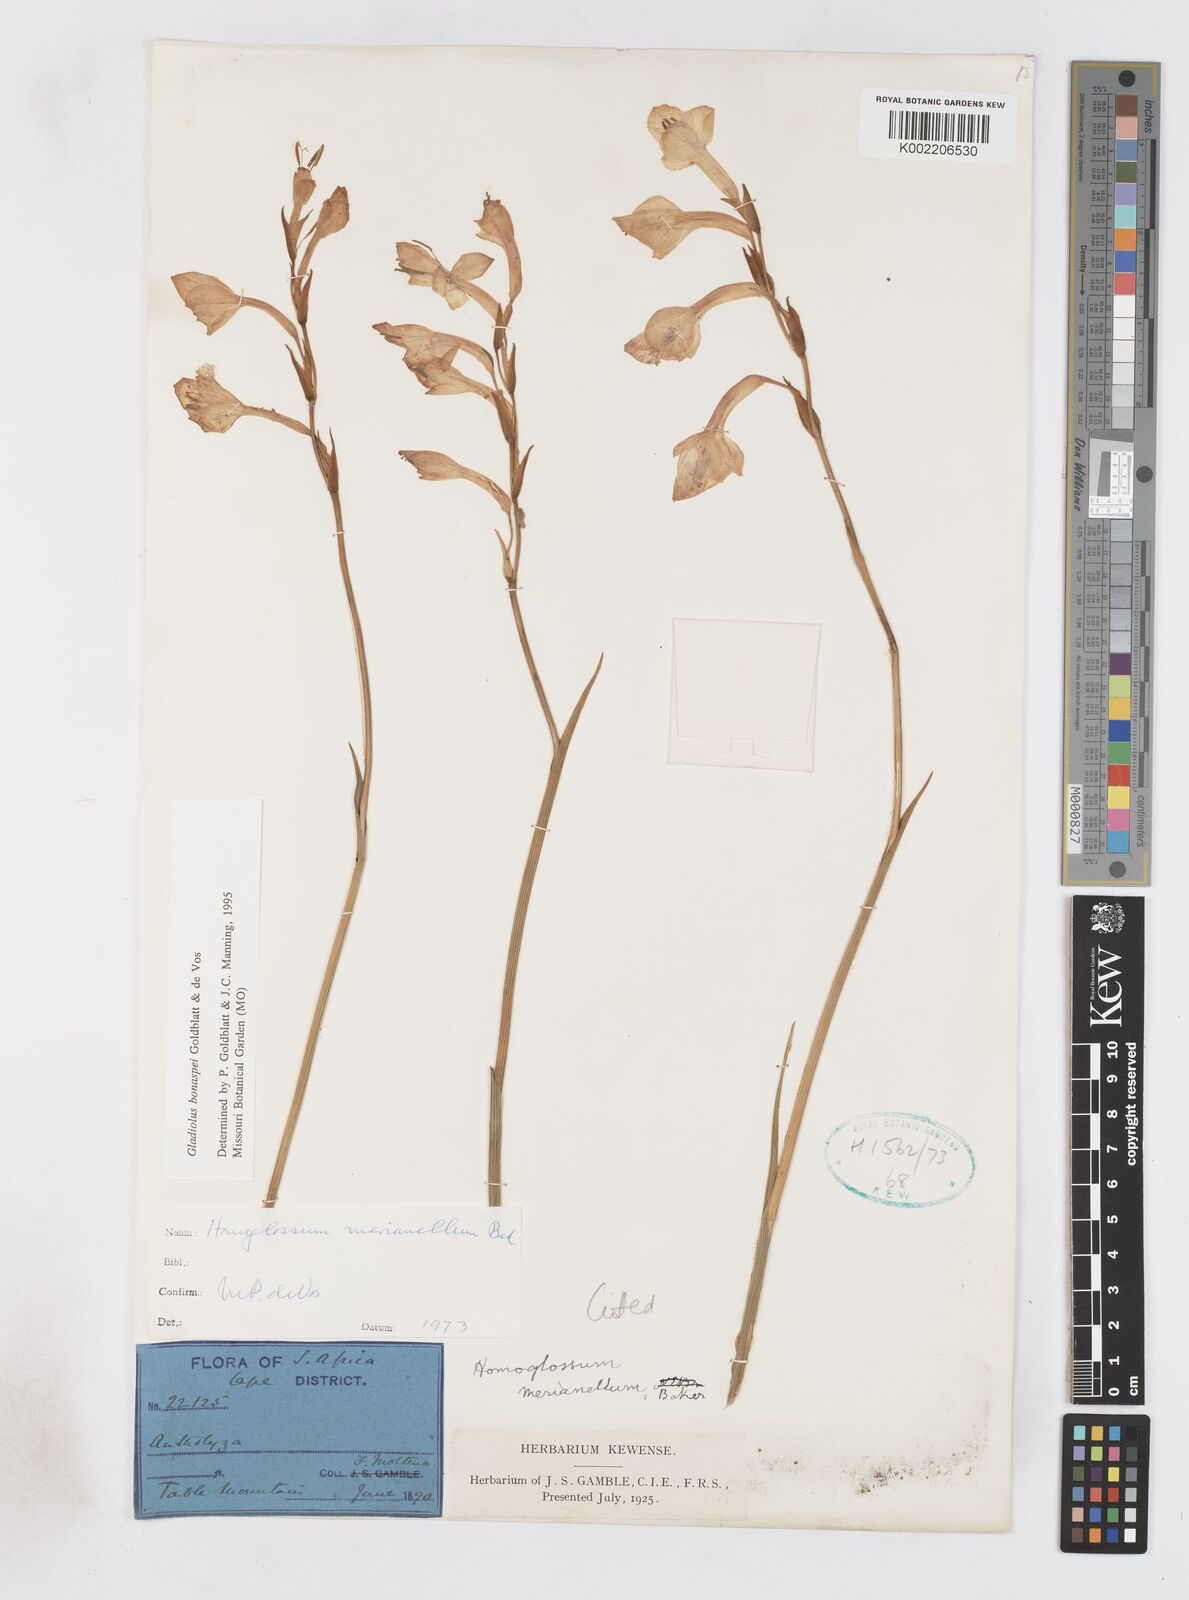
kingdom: Plantae
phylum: Tracheophyta
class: Liliopsida
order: Asparagales
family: Iridaceae
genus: Gladiolus
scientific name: Gladiolus merianellus
